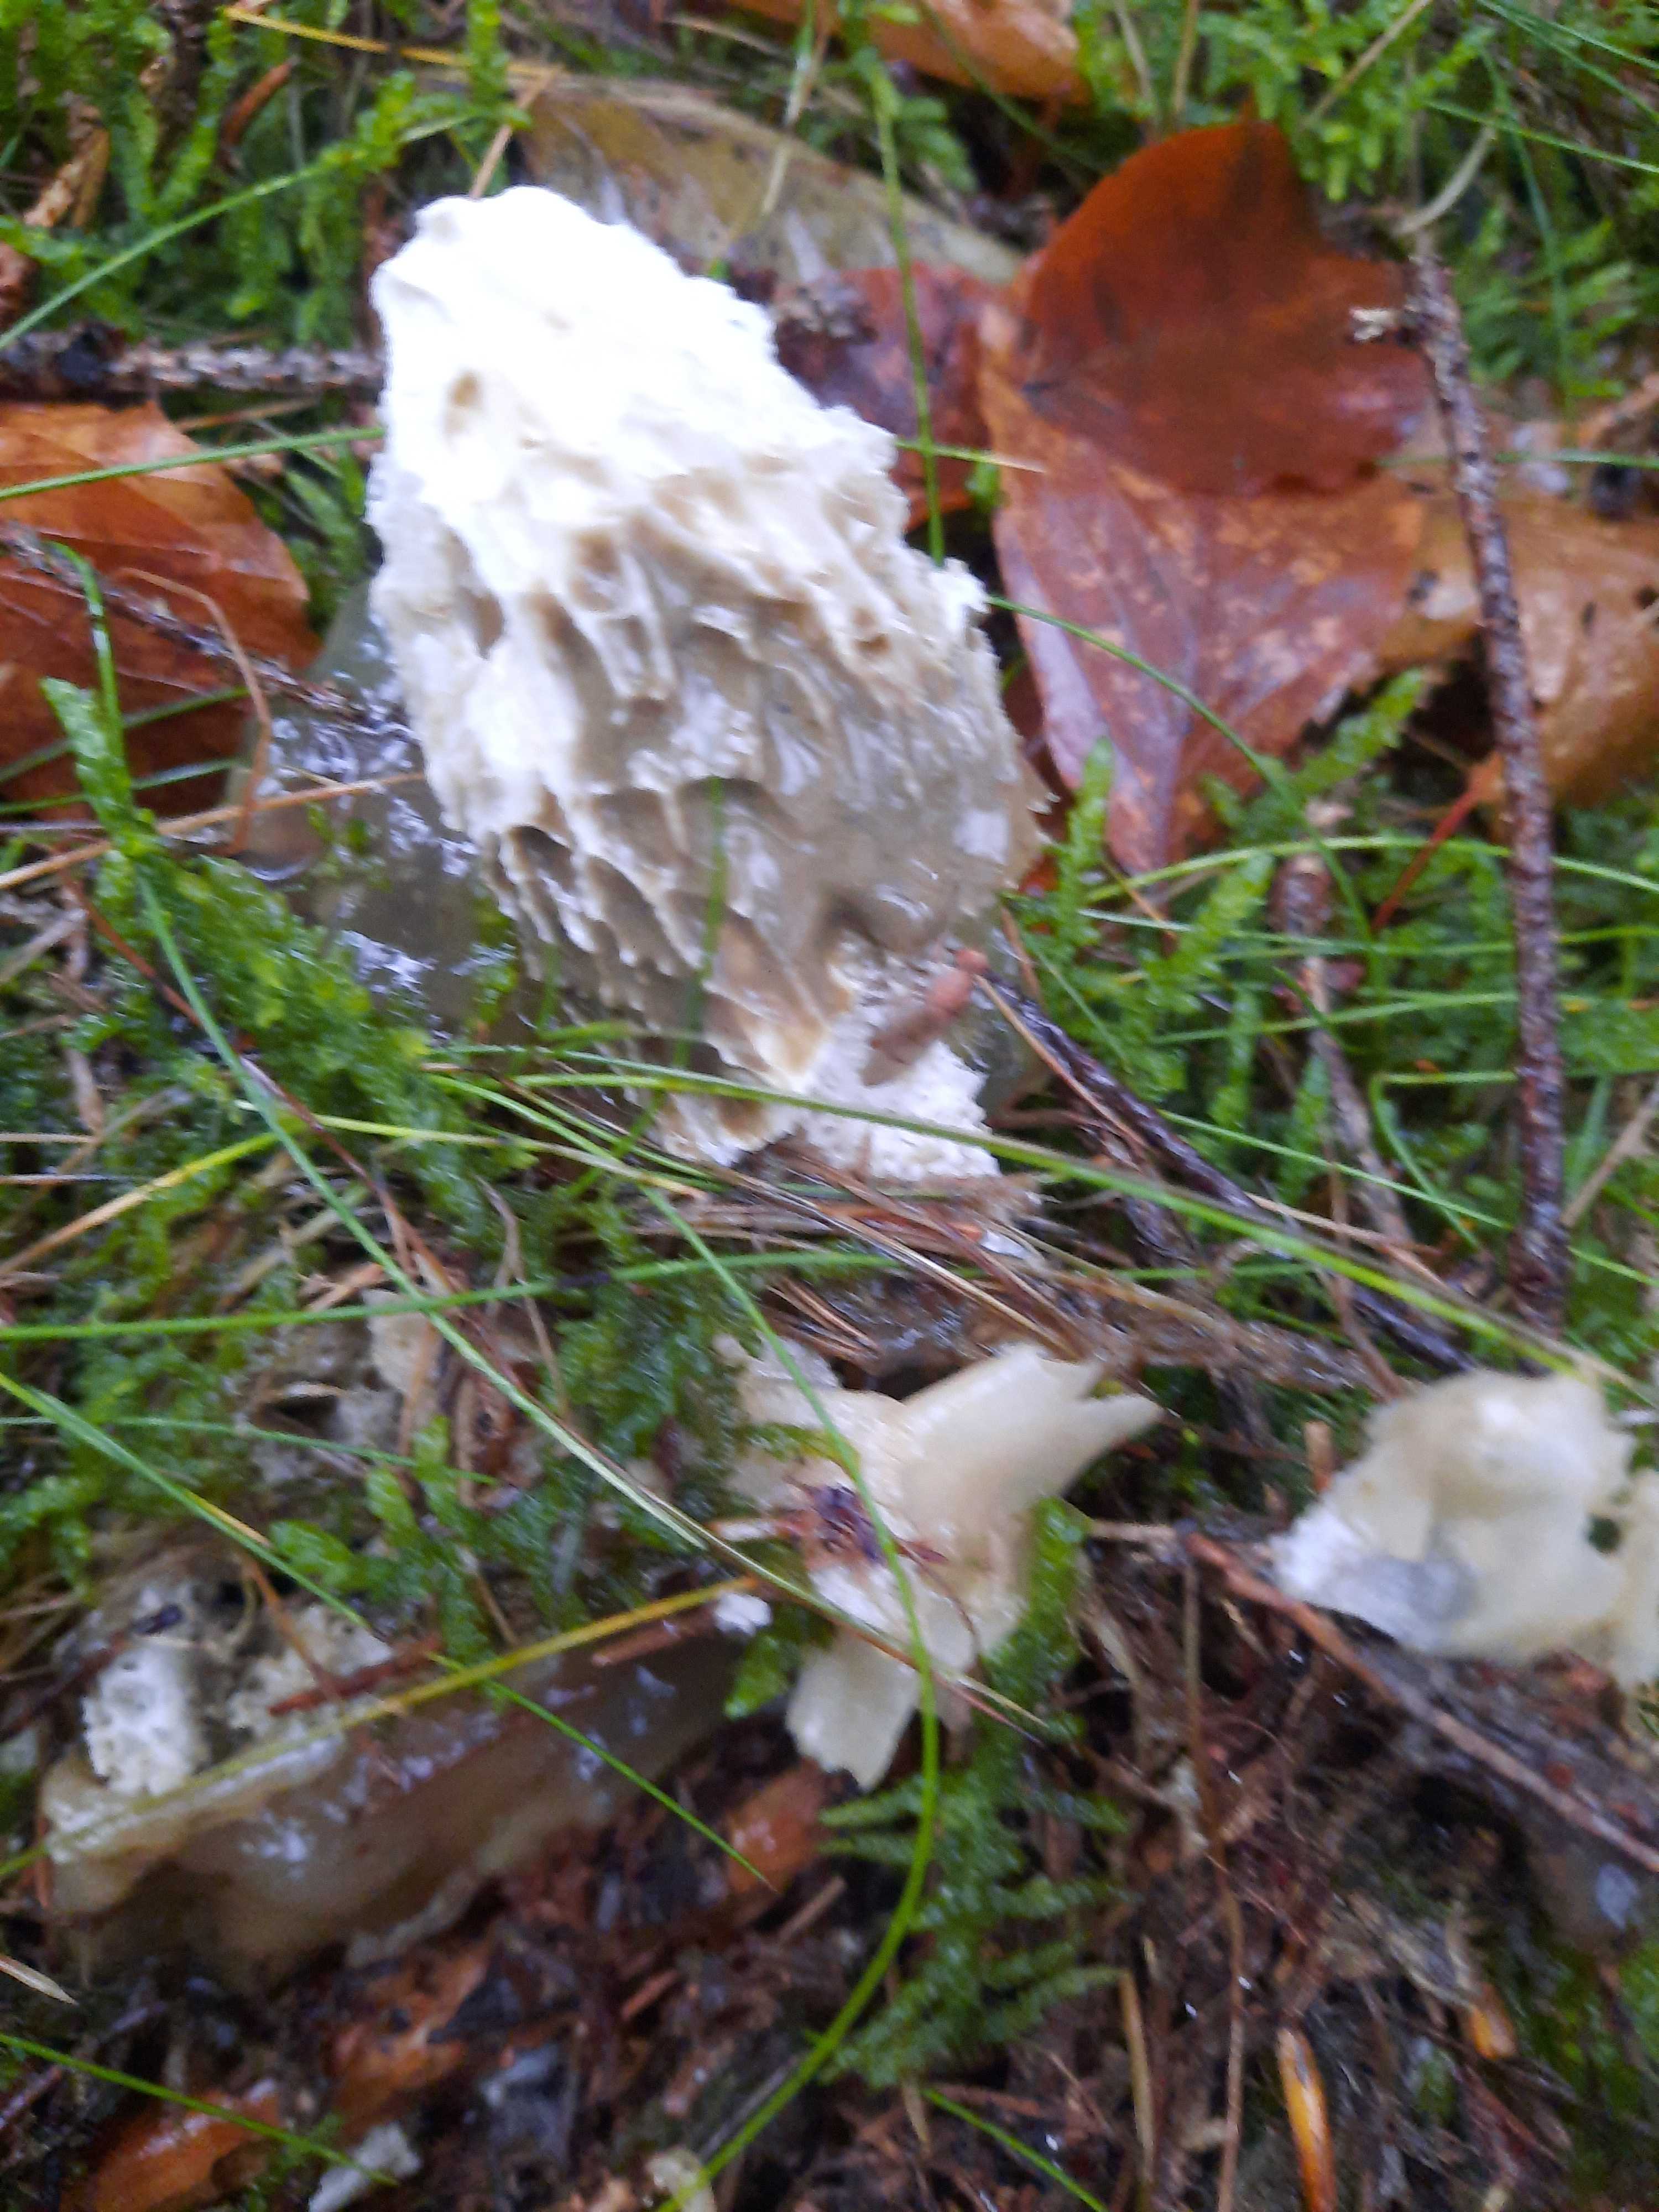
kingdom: Fungi
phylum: Basidiomycota
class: Agaricomycetes
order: Phallales
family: Phallaceae
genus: Phallus
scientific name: Phallus impudicus
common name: almindelig stinksvamp
